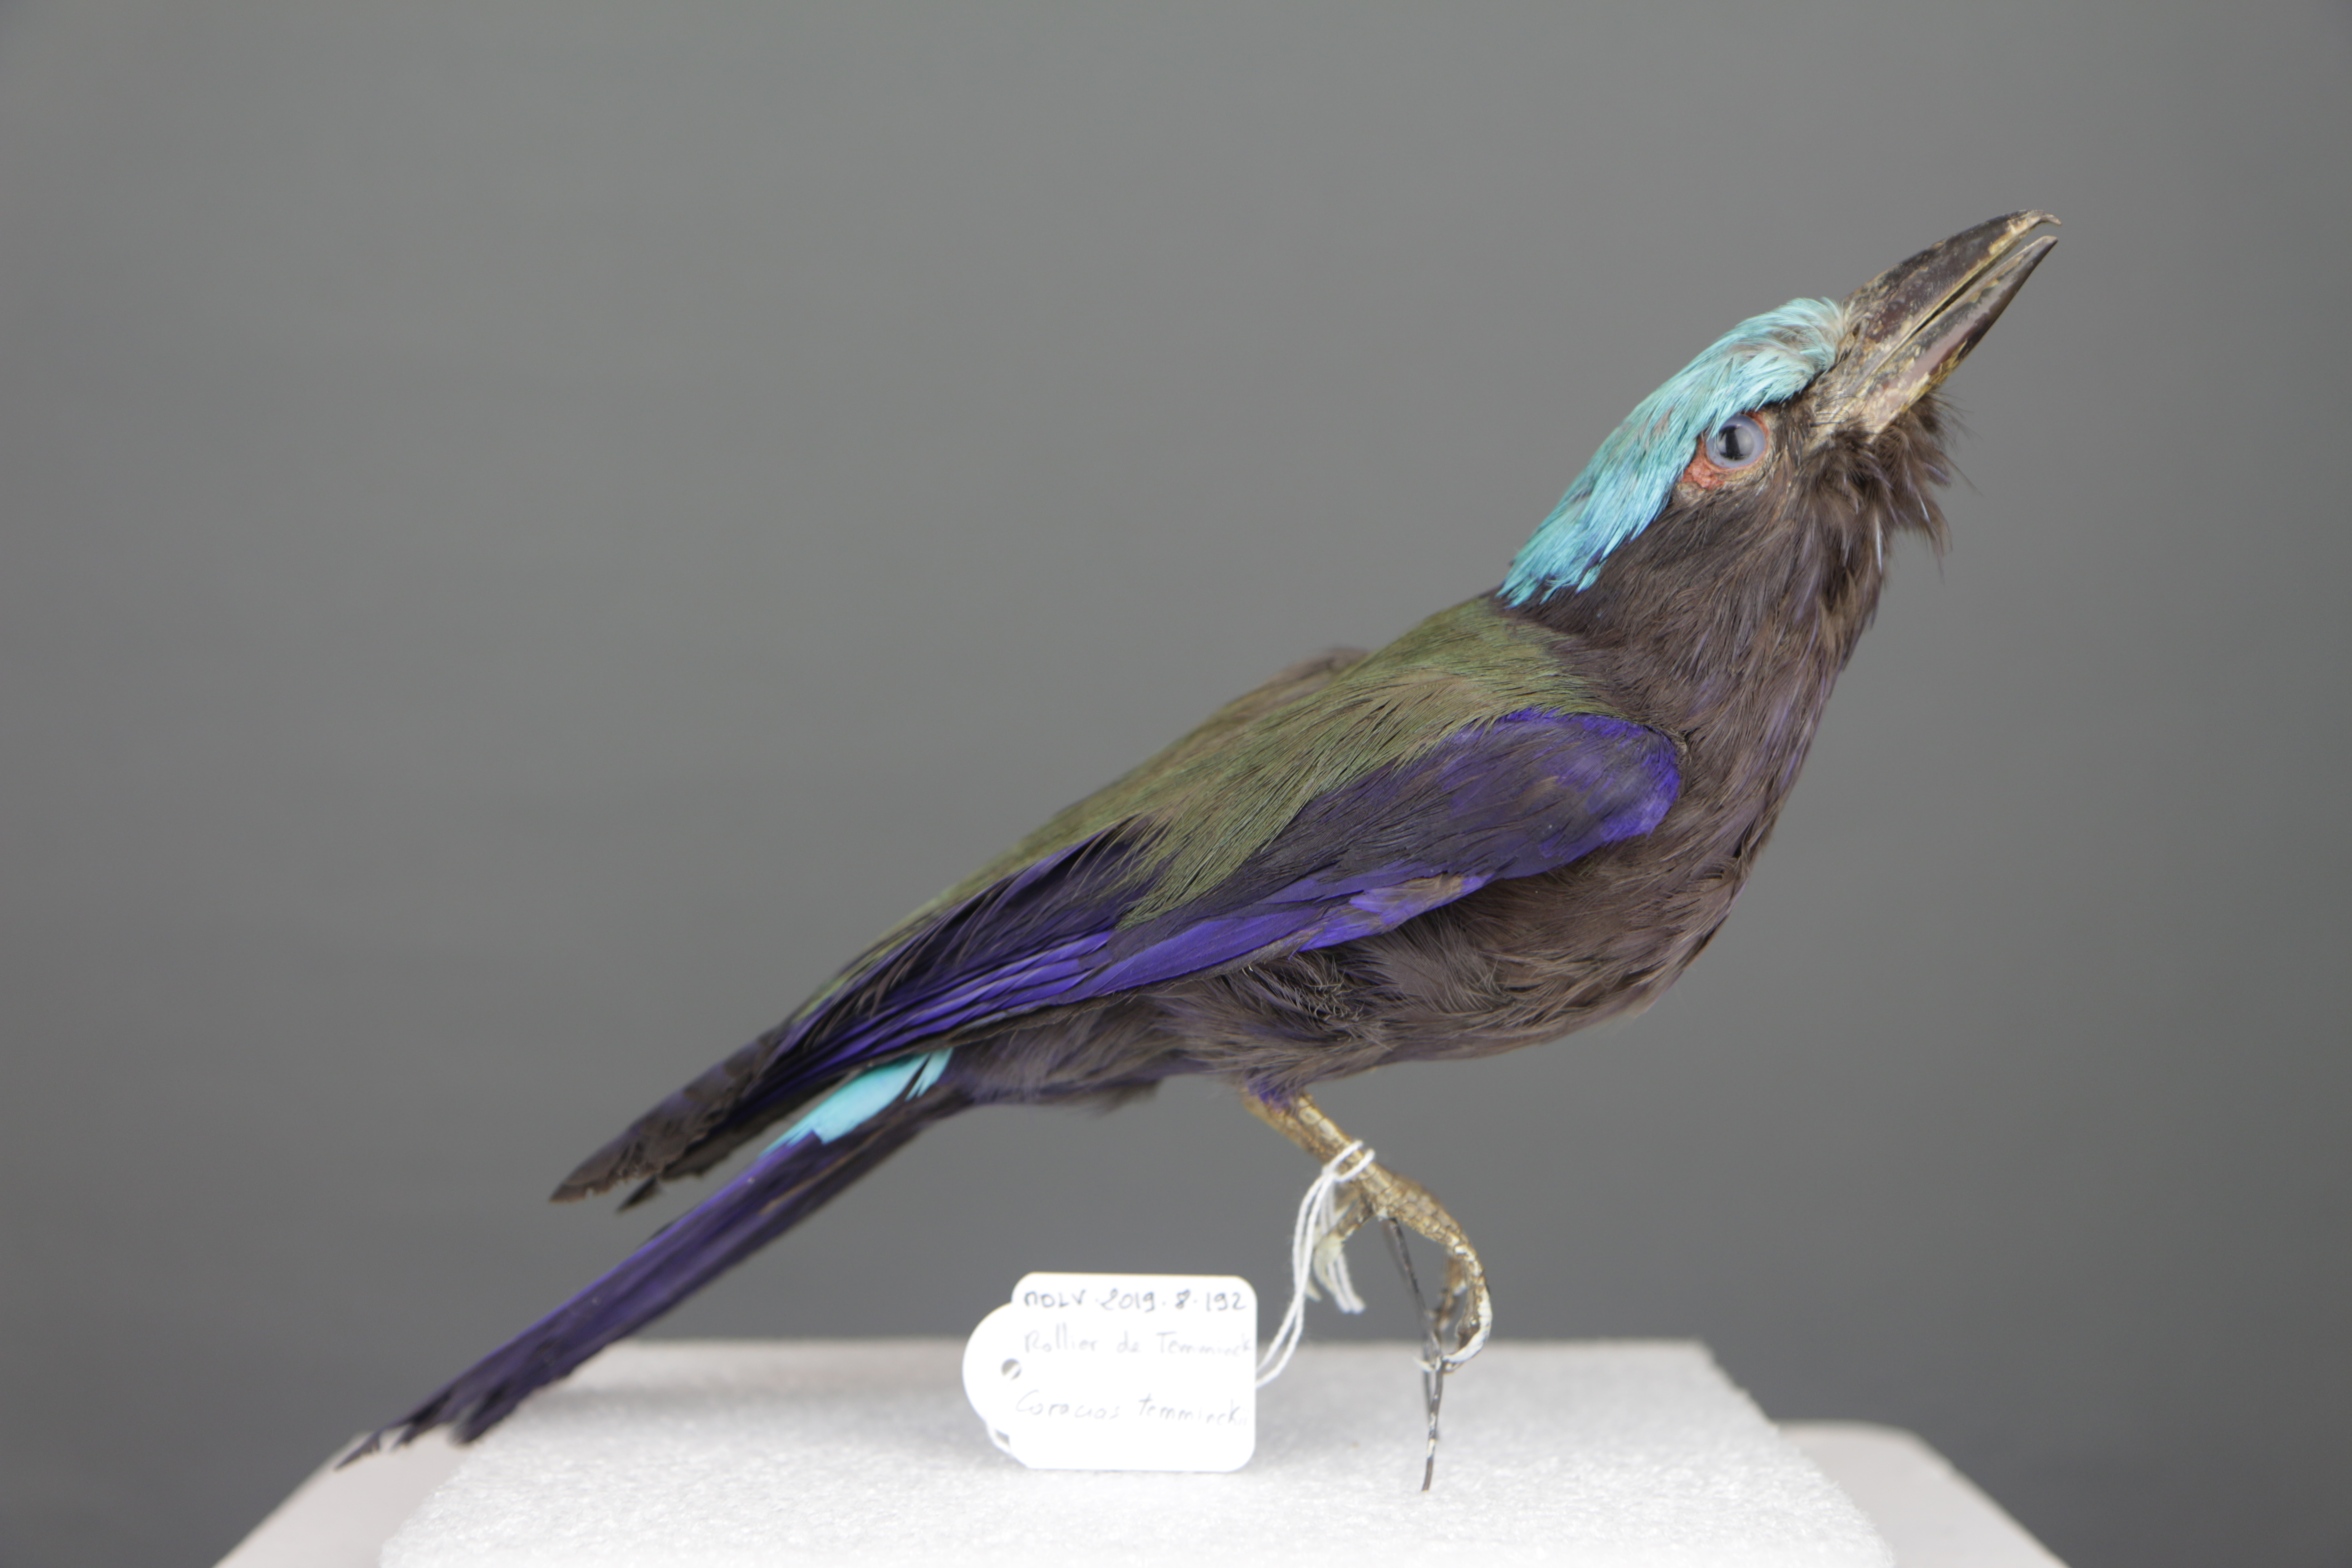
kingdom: Animalia
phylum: Chordata
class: Aves
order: Coraciiformes
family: Coraciidae
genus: Coracias
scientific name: Coracias temminckii
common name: Purple-winged roller
